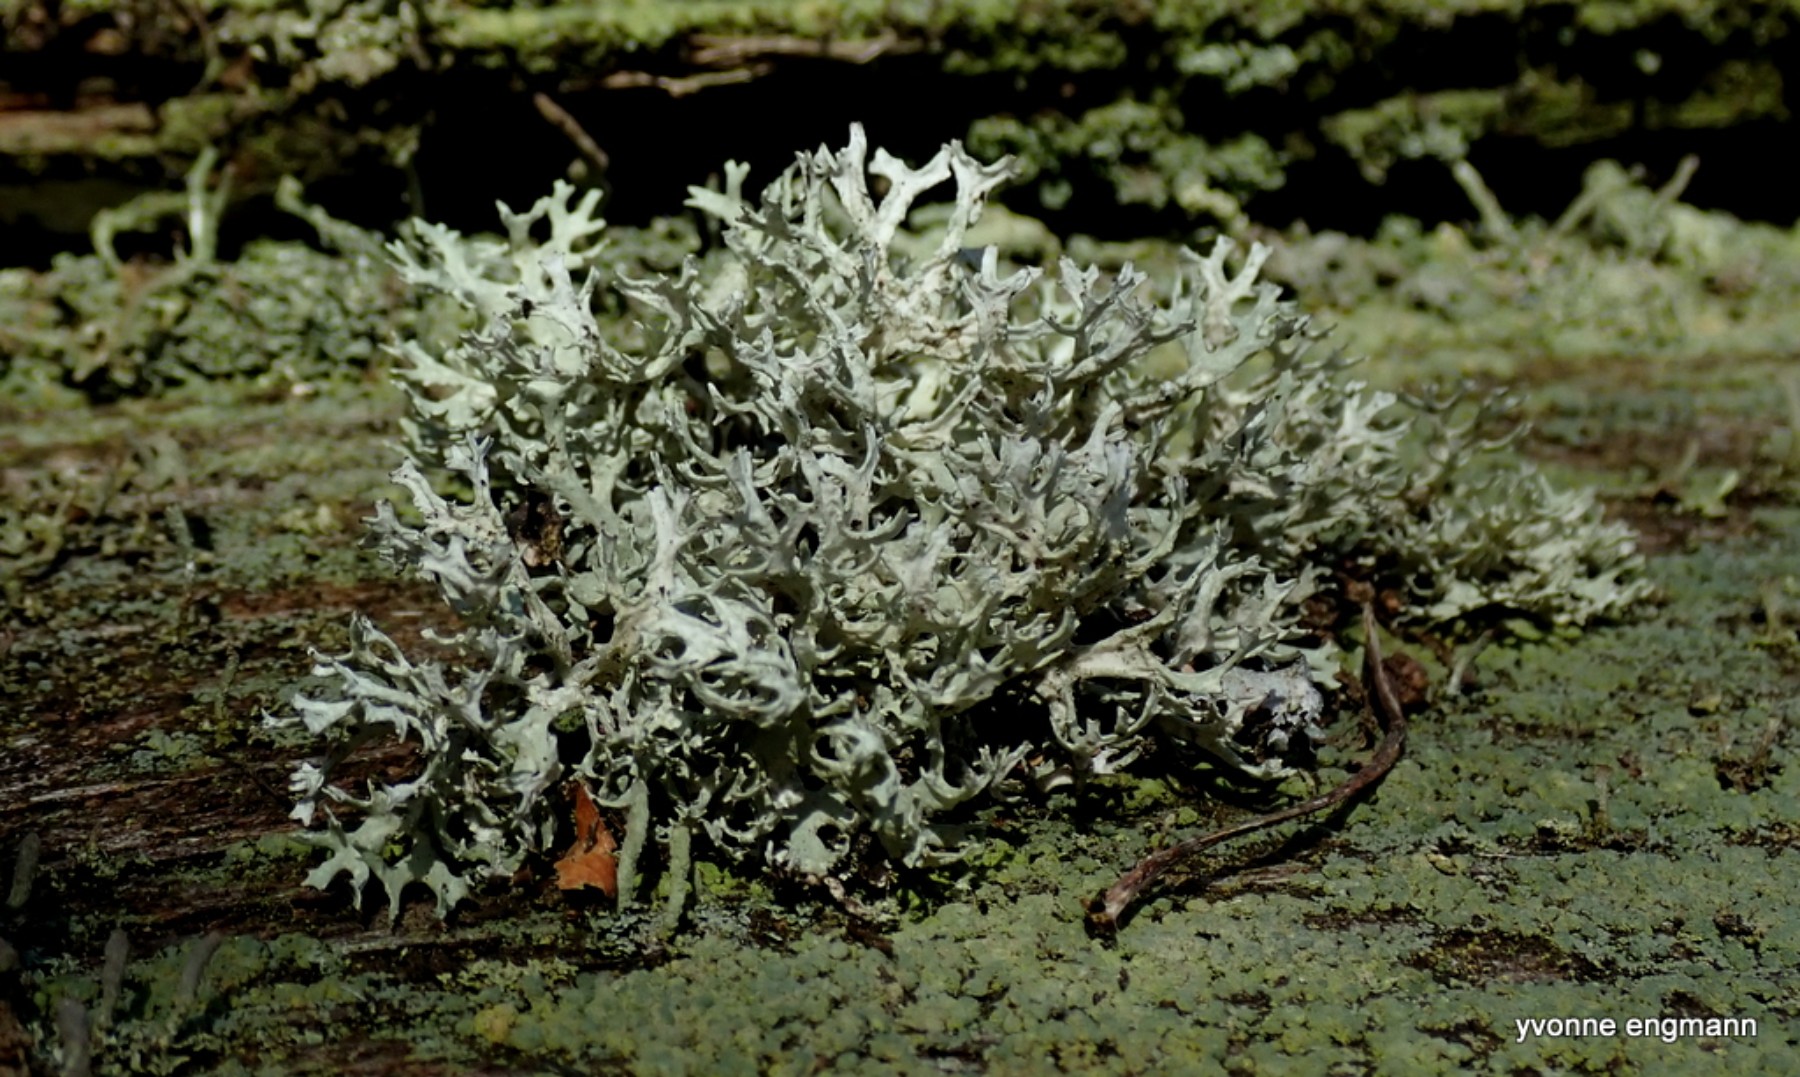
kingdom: Fungi
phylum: Ascomycota
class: Lecanoromycetes
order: Lecanorales
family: Parmeliaceae
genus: Evernia
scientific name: Evernia prunastri
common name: almindelig slåenlav
